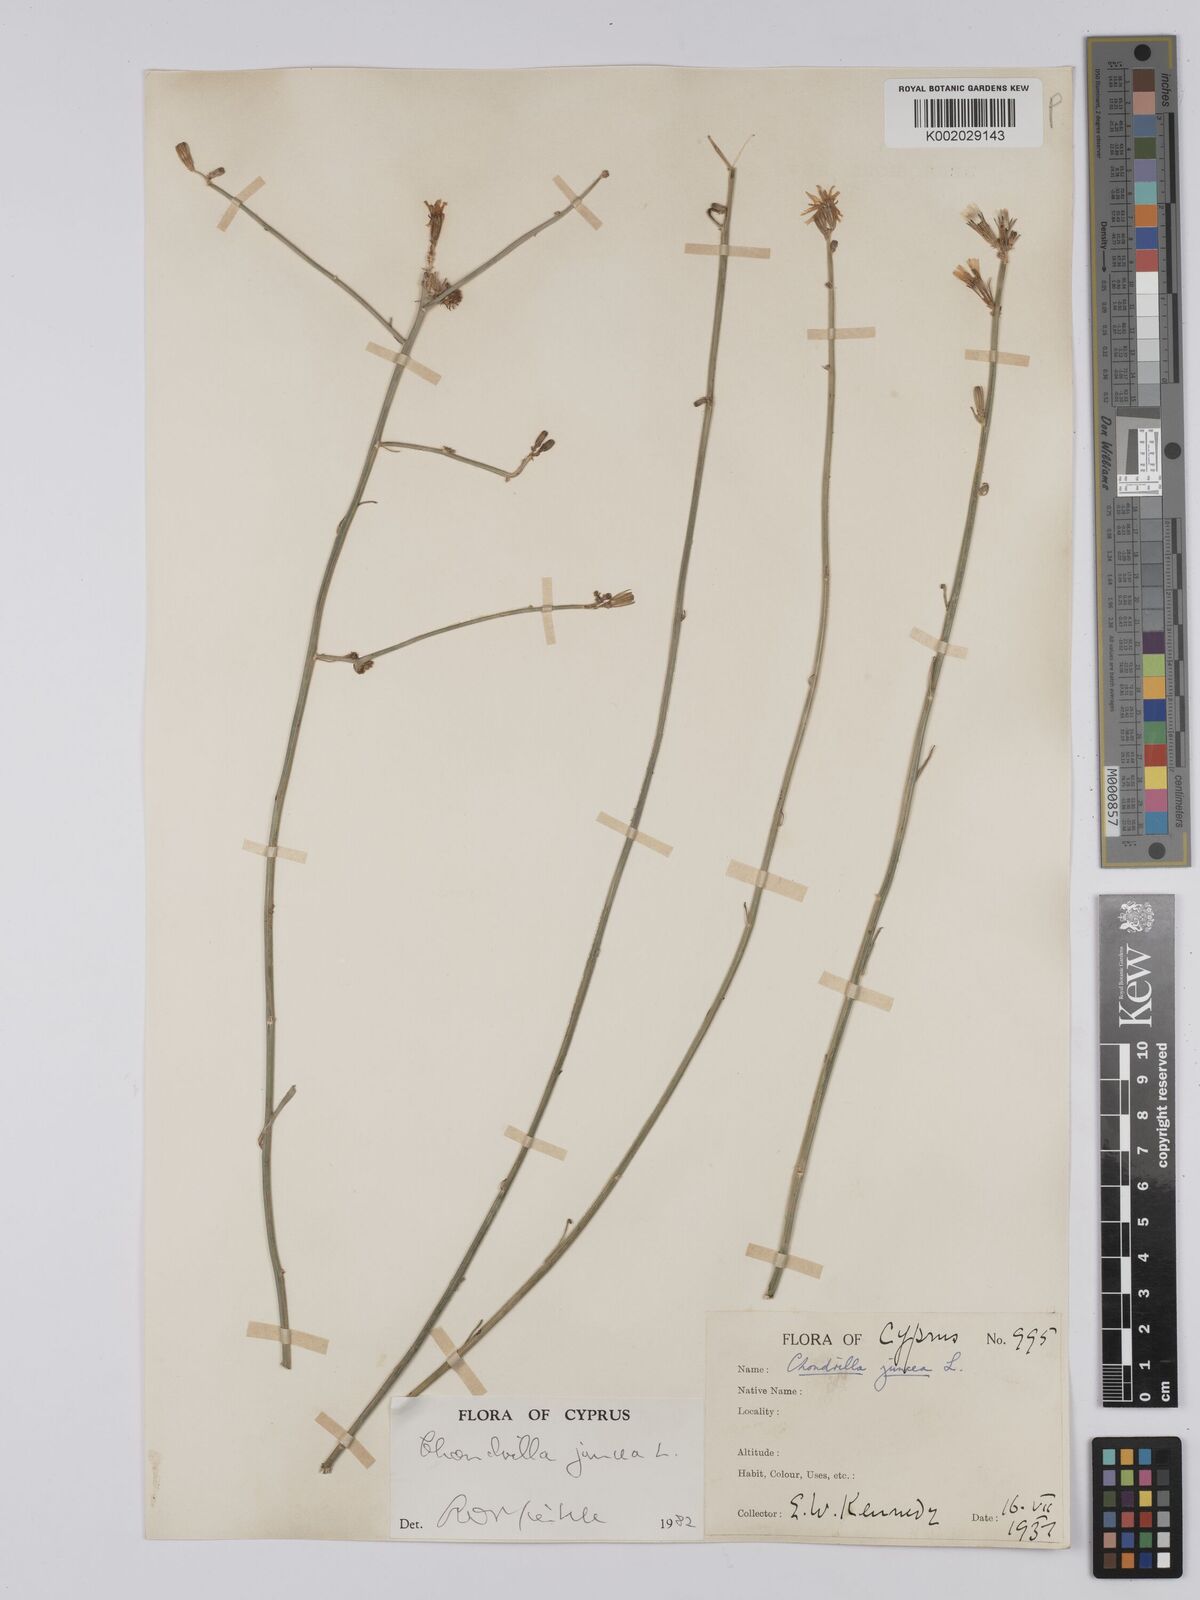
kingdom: Plantae
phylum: Tracheophyta
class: Magnoliopsida
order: Asterales
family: Asteraceae
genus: Chondrilla
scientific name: Chondrilla juncea
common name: Skeleton weed
